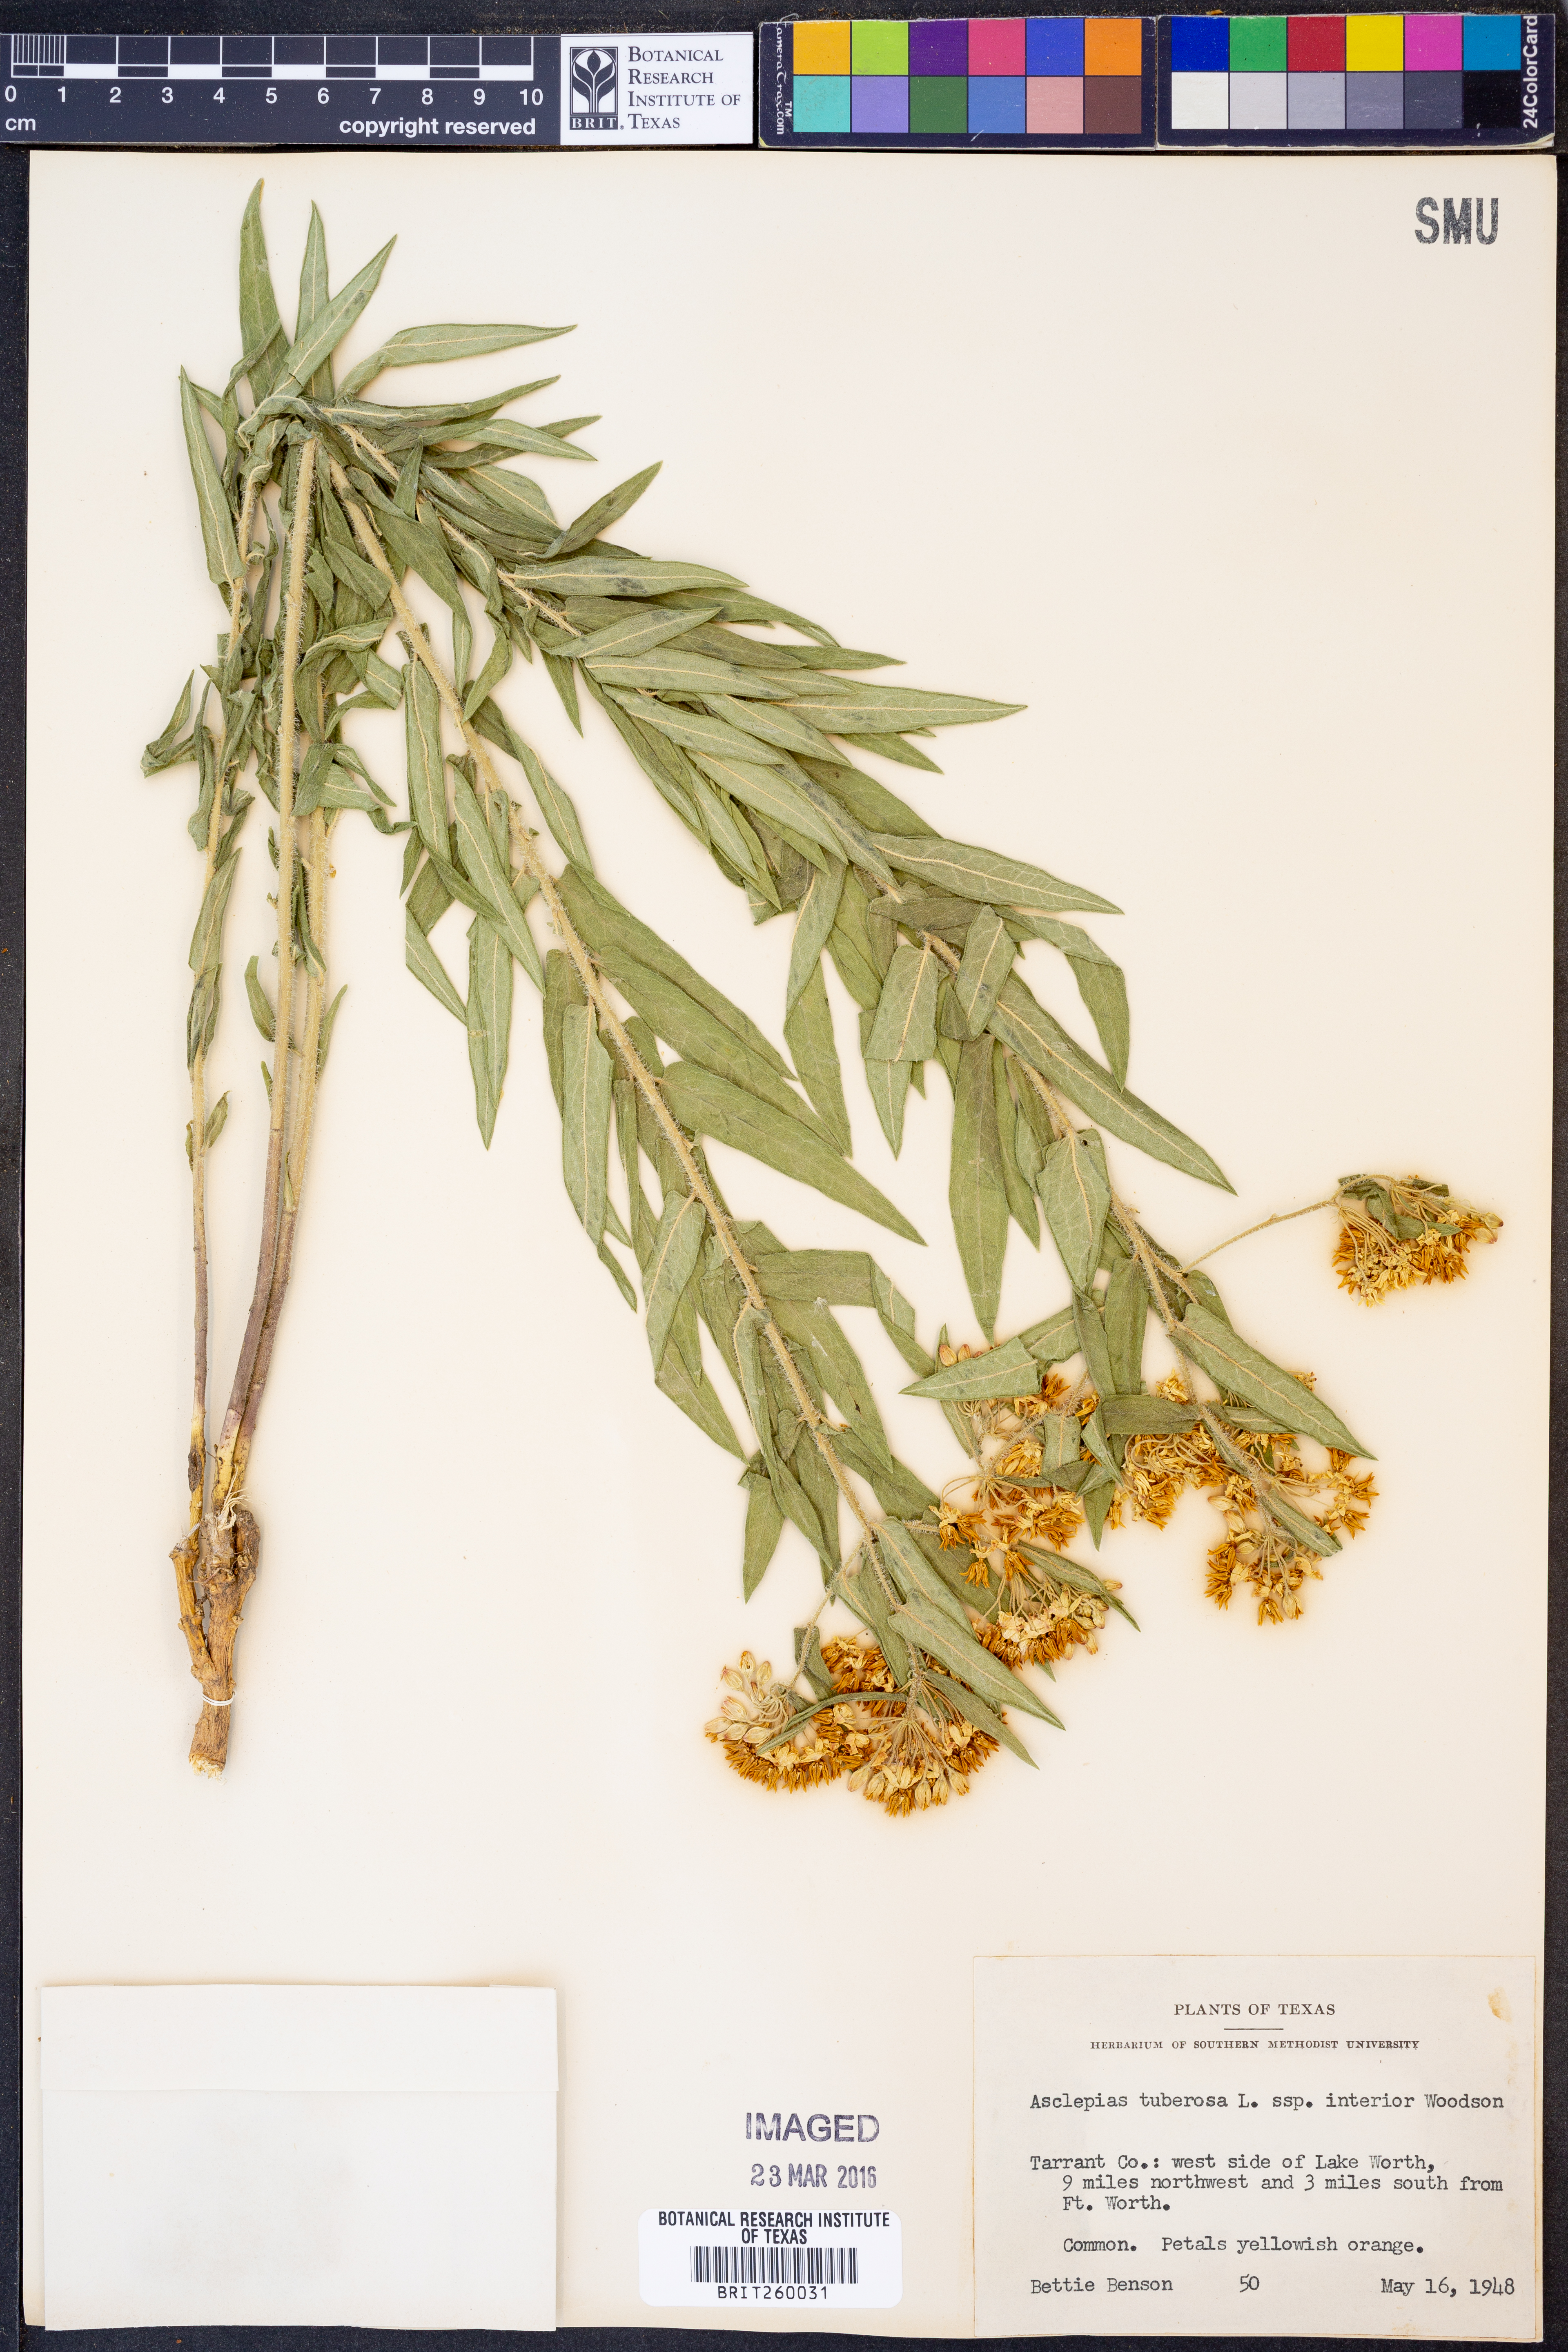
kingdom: Plantae
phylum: Tracheophyta
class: Magnoliopsida
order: Gentianales
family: Apocynaceae
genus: Asclepias
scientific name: Asclepias tuberosa
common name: Butterfly milkweed
